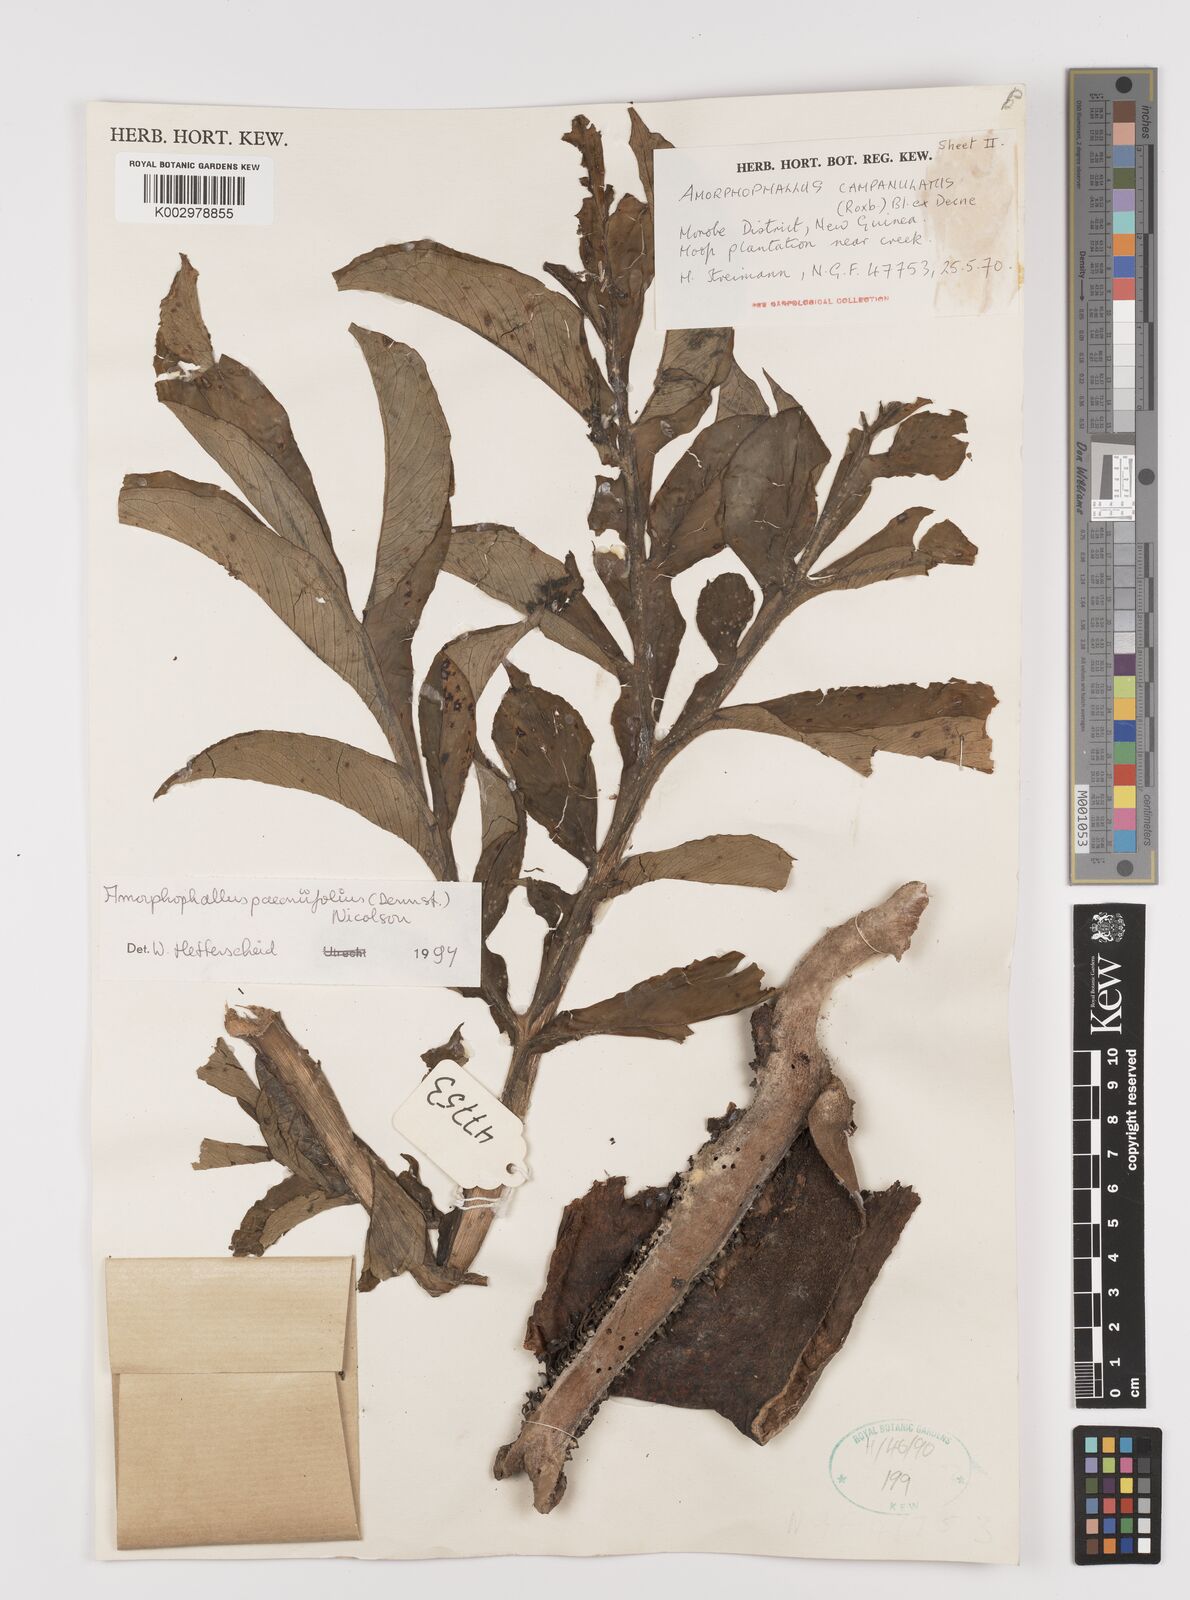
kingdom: Plantae
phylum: Tracheophyta
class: Liliopsida
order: Alismatales
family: Araceae
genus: Amorphophallus
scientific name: Amorphophallus paeoniifolius
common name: Telinga-potato
